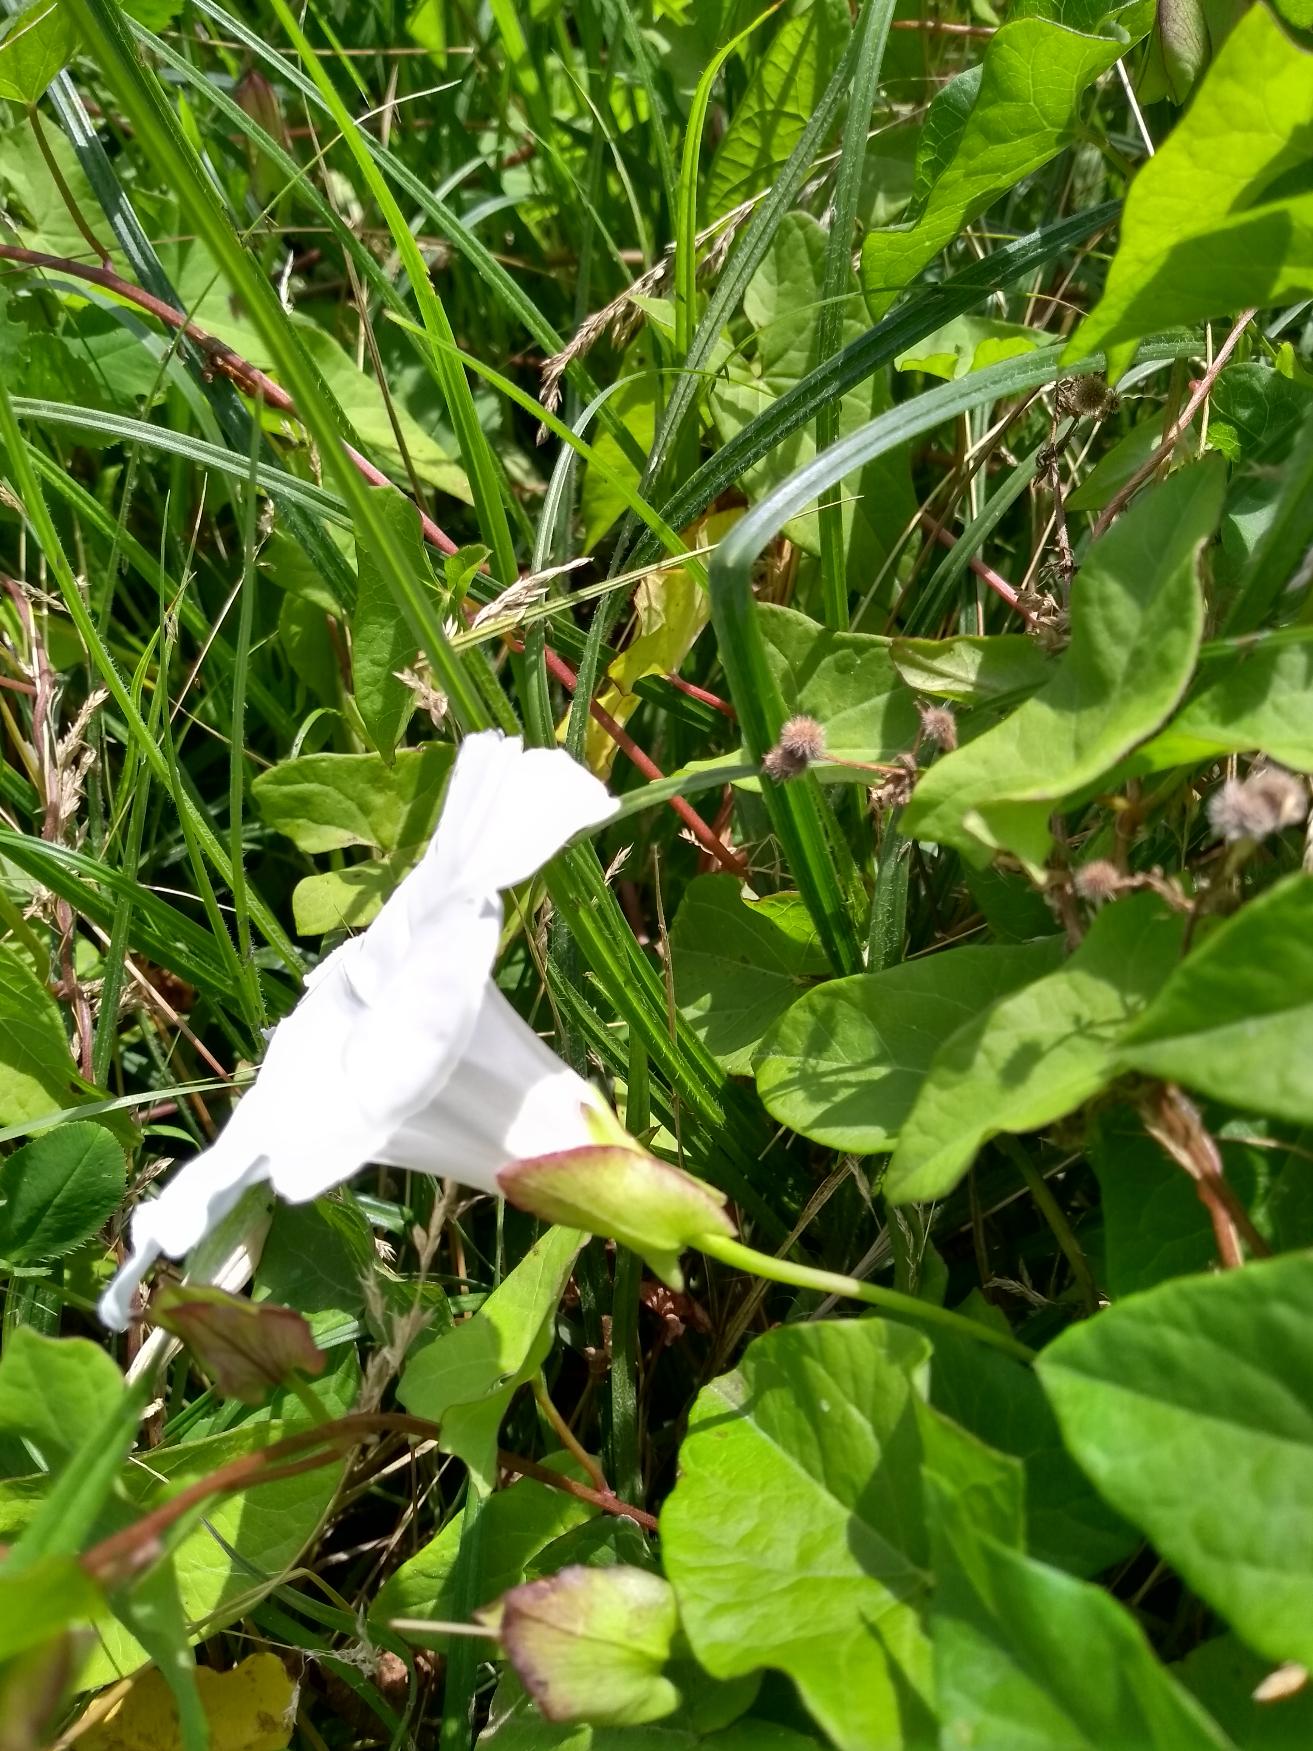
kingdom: Plantae
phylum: Tracheophyta
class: Magnoliopsida
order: Solanales
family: Convolvulaceae
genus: Calystegia
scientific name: Calystegia sepium
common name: Gærde-snerle
